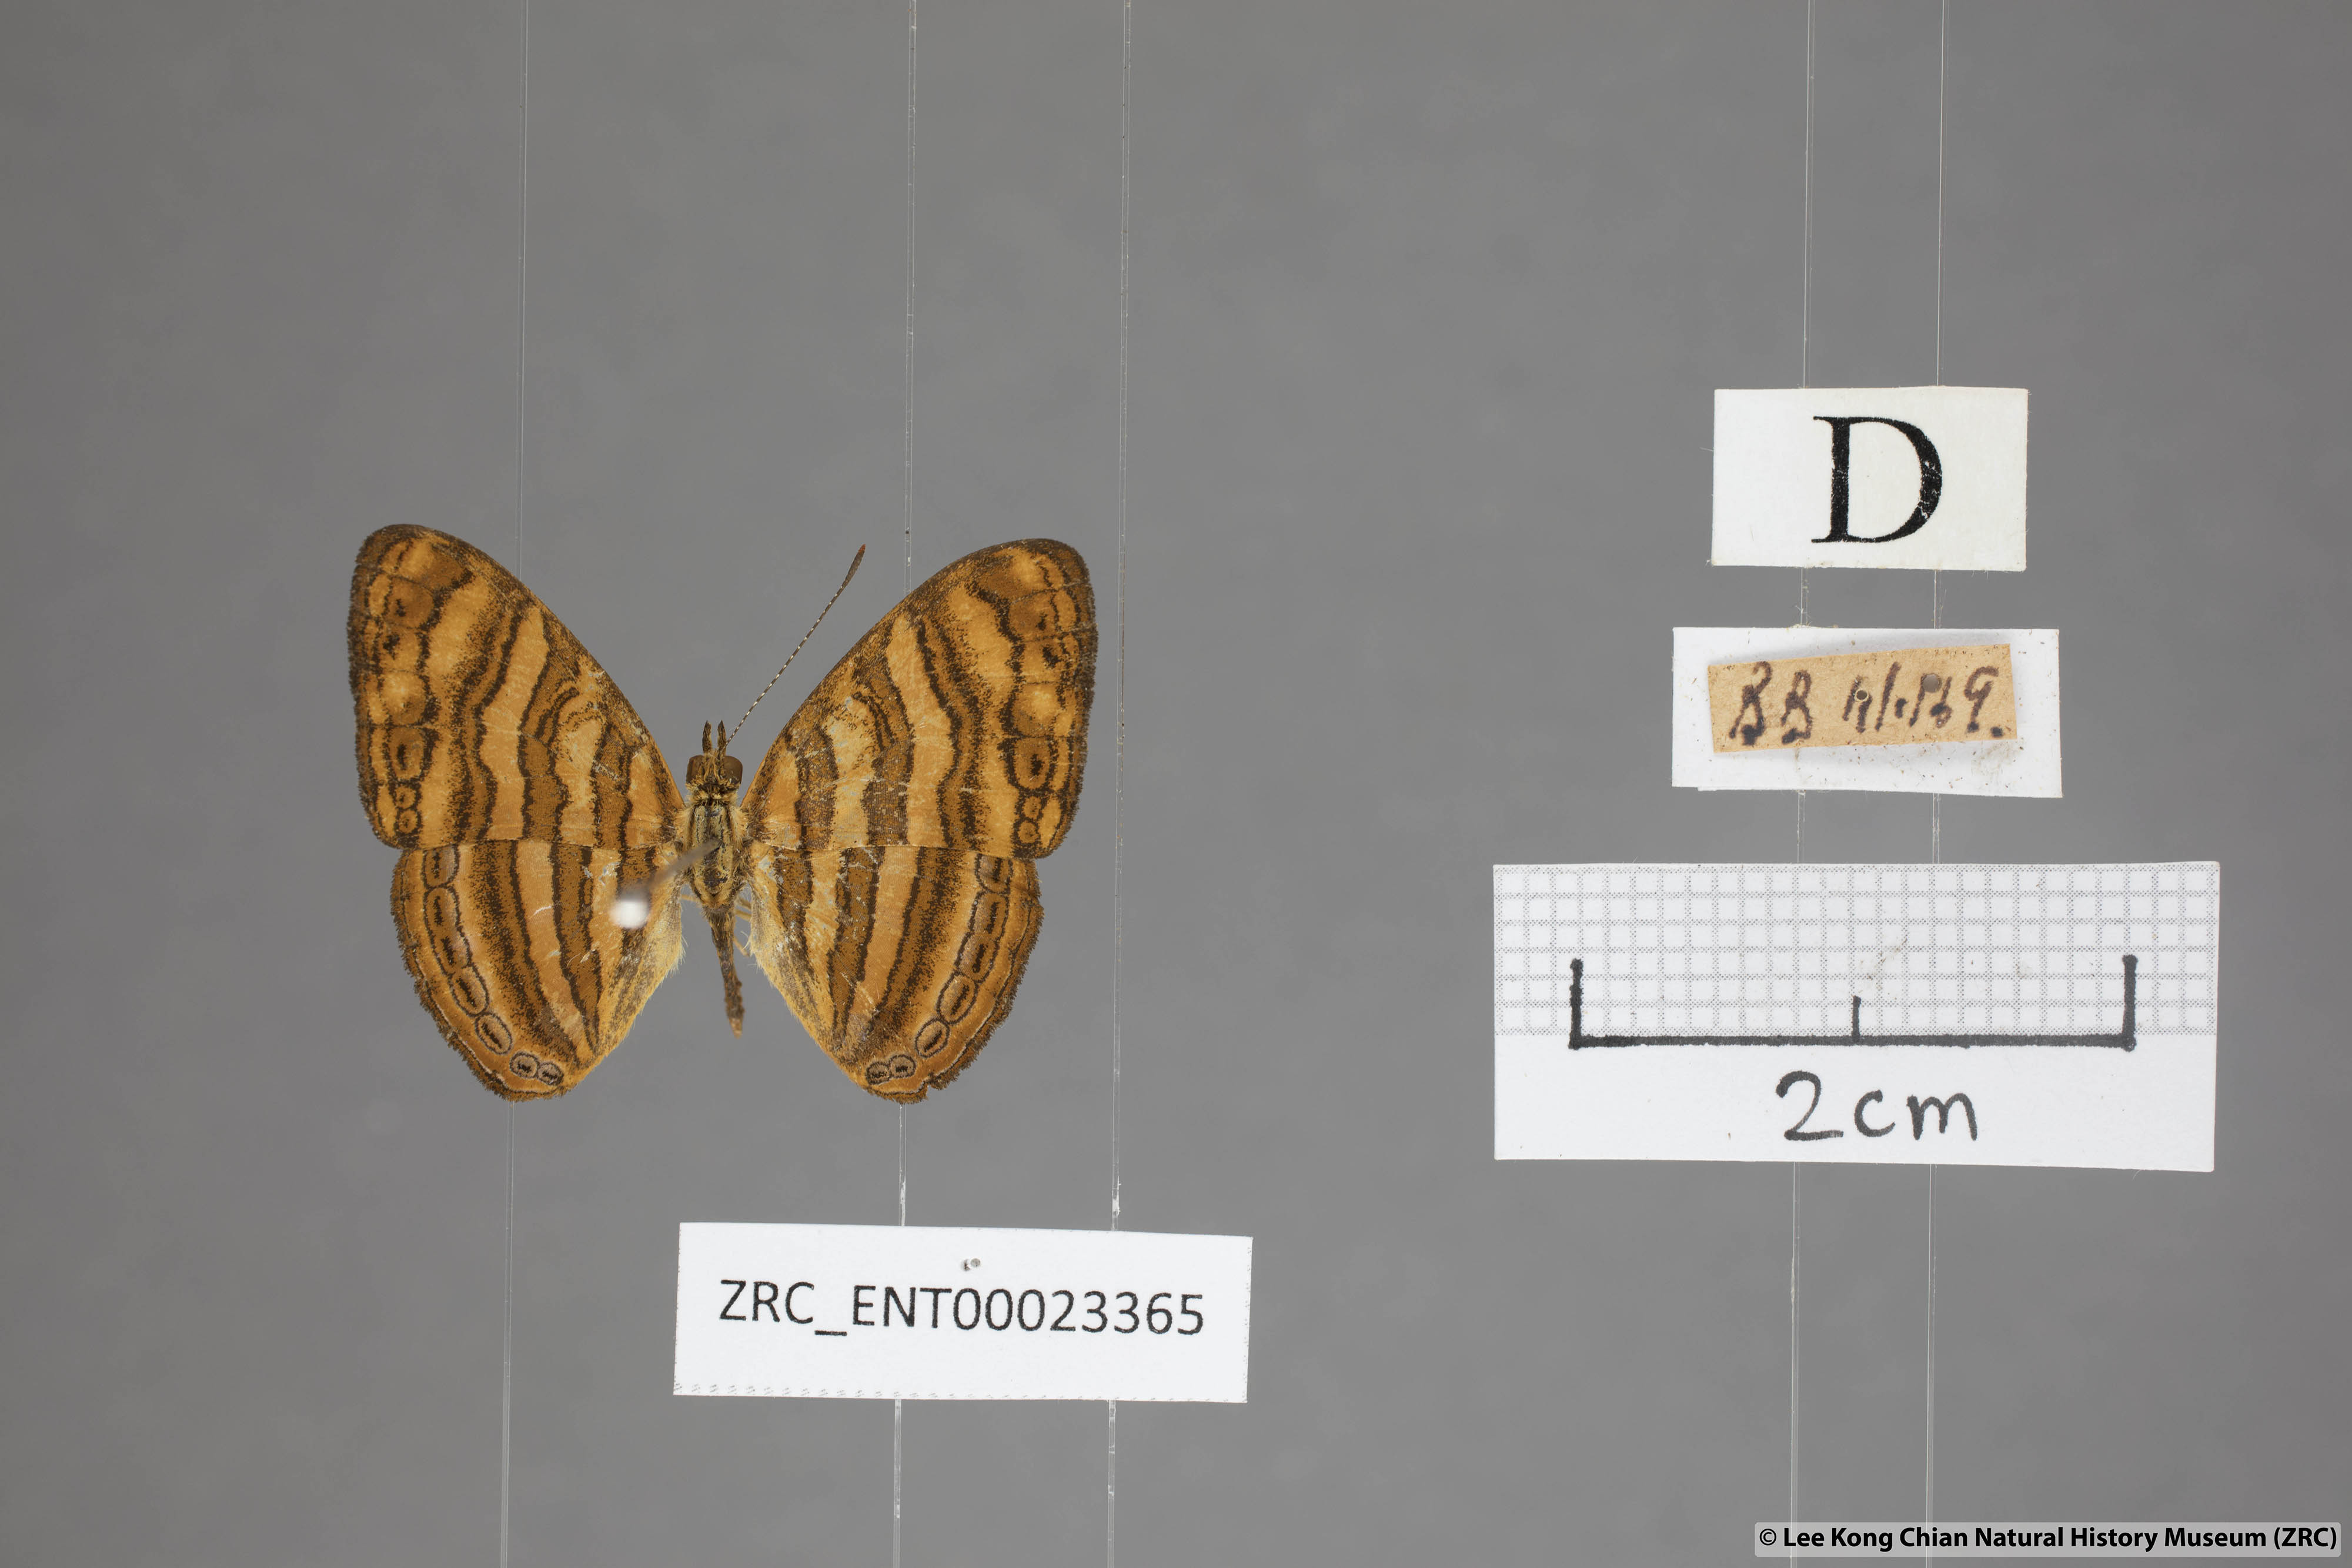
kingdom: Animalia
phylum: Arthropoda
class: Insecta
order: Lepidoptera
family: Nymphalidae
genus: Chersonesia
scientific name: Chersonesia peraka
